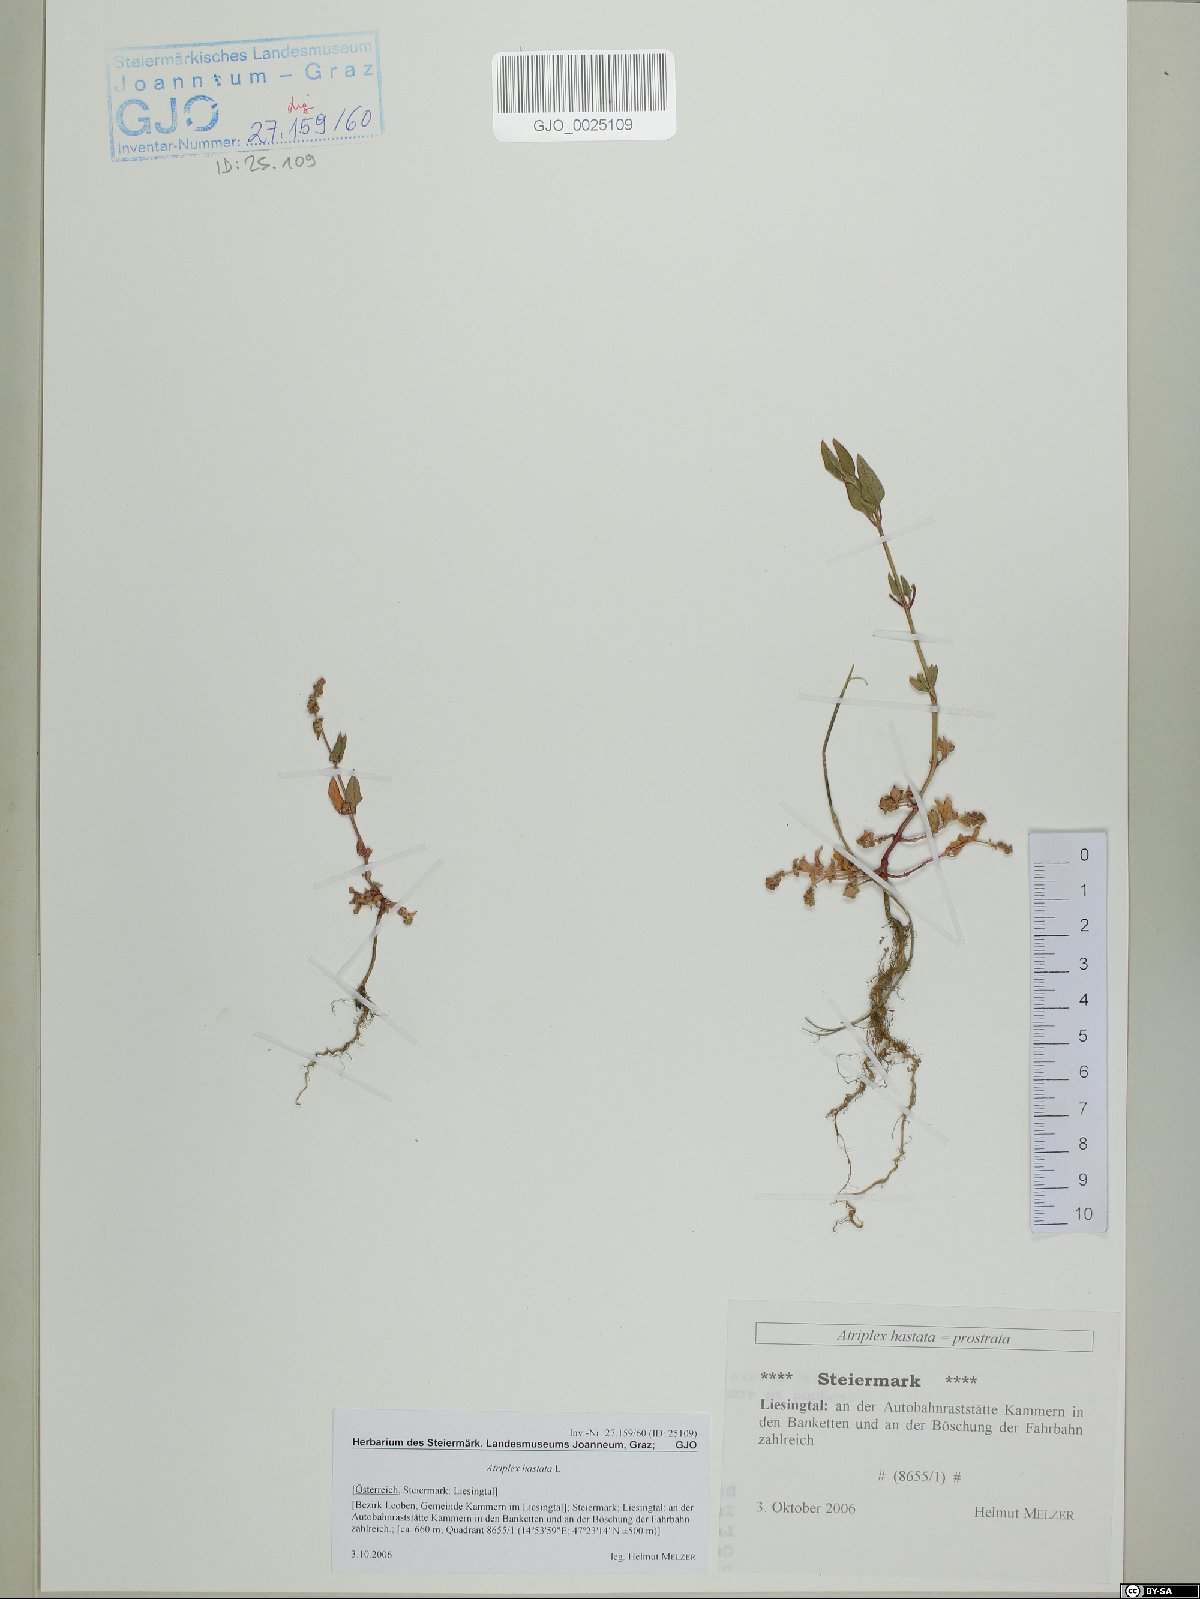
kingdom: Plantae
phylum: Tracheophyta
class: Magnoliopsida
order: Caryophyllales
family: Amaranthaceae
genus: Atriplex
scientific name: Atriplex calotheca
